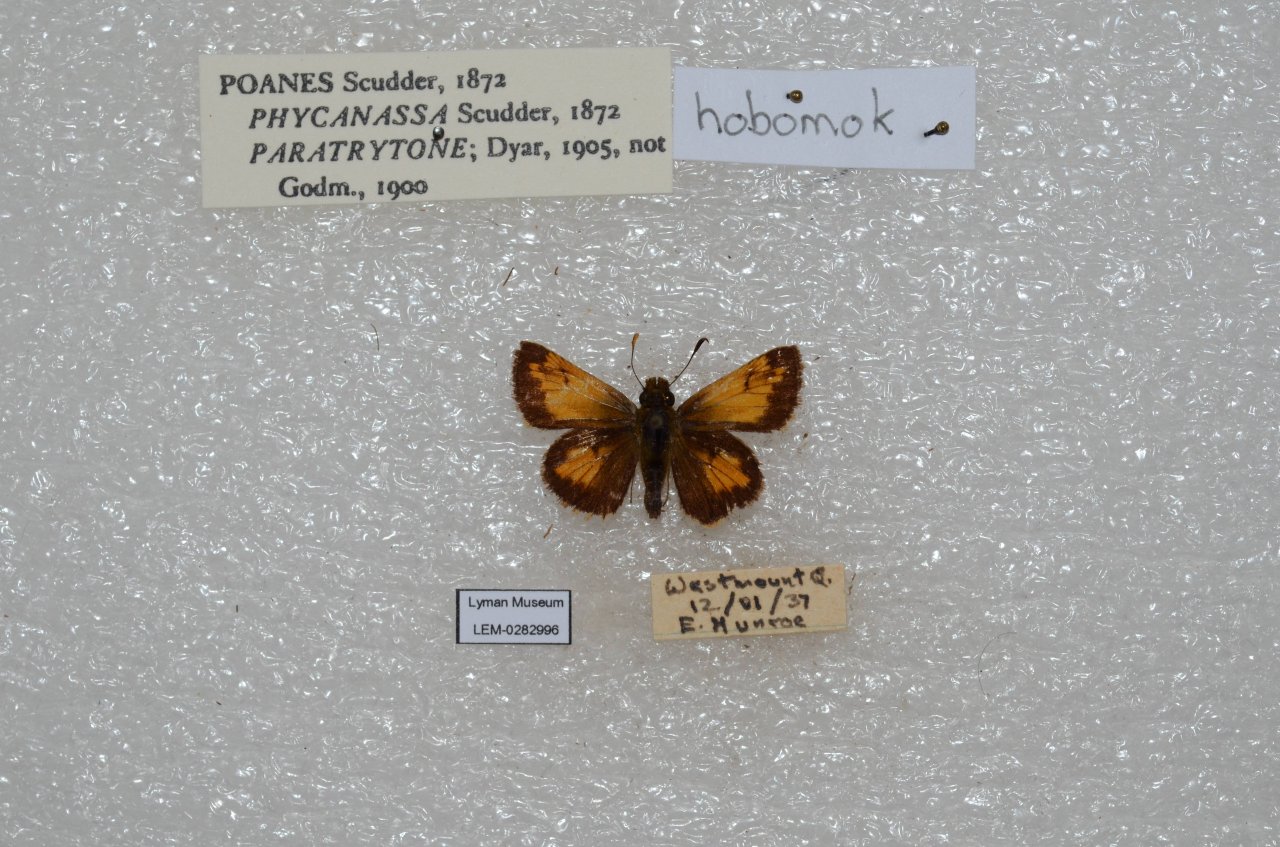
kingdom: Animalia
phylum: Arthropoda
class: Insecta
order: Lepidoptera
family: Hesperiidae
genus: Lon
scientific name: Lon hobomok
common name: Hobomok Skipper
